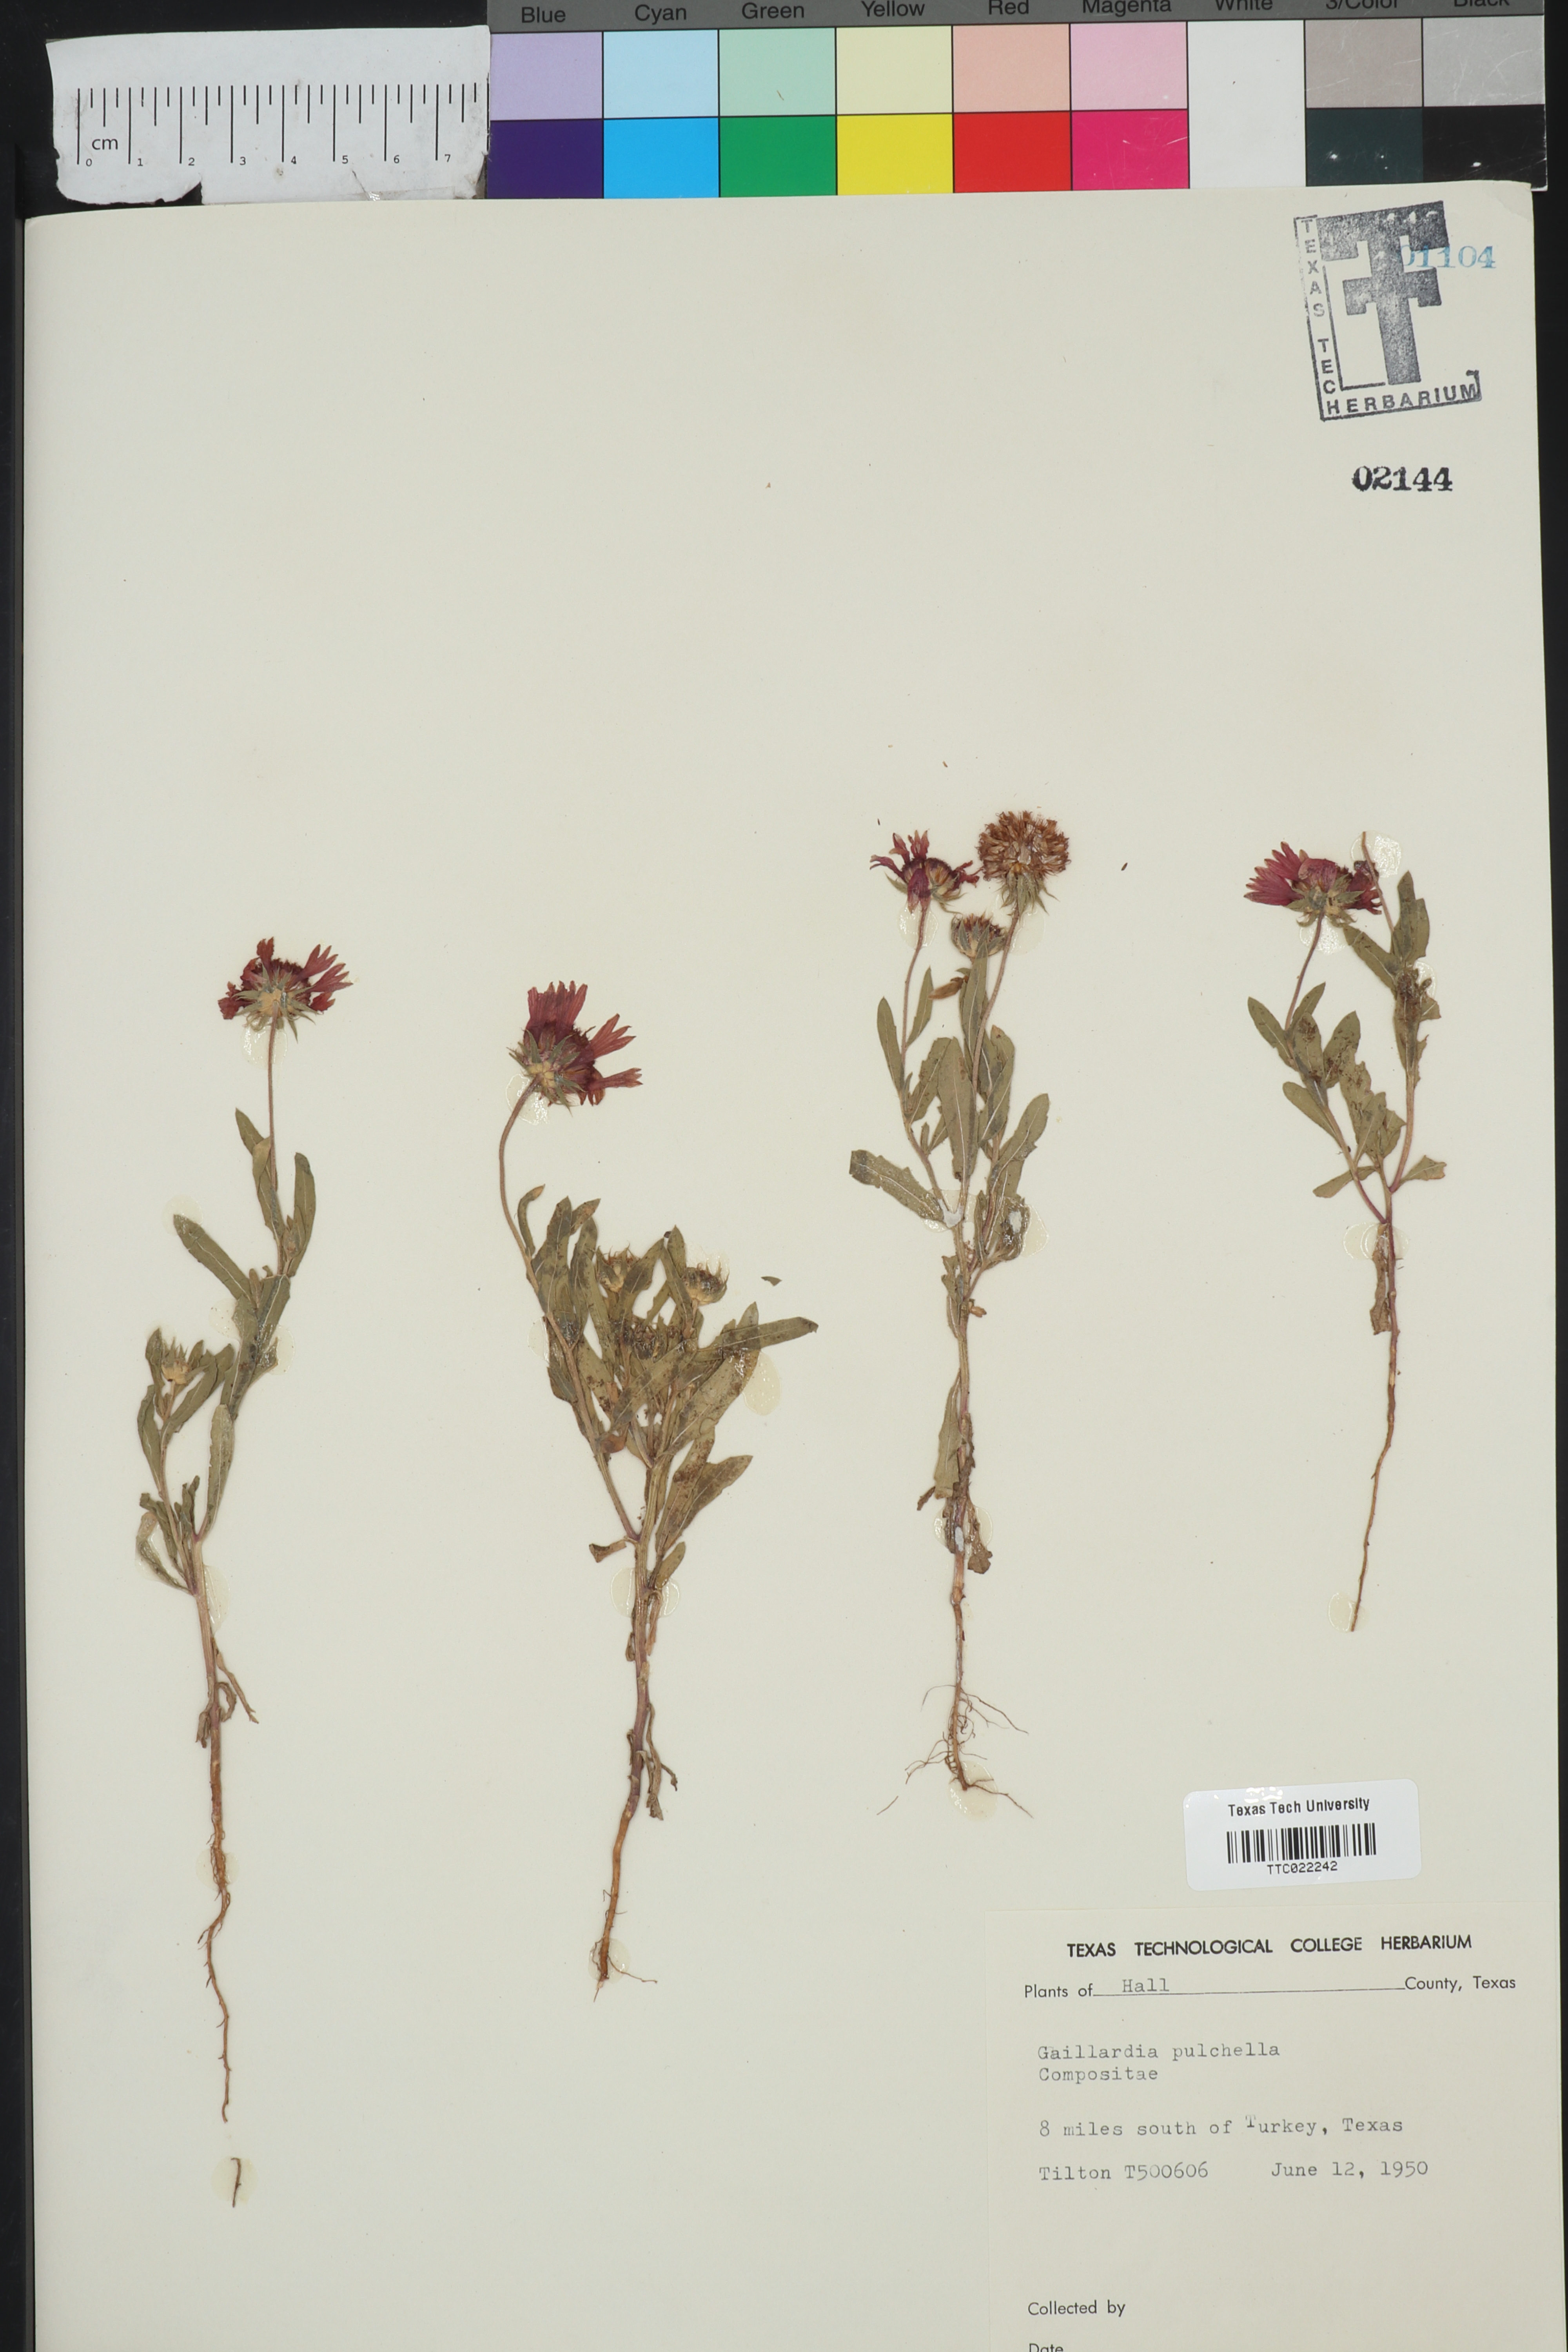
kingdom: Plantae
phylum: Tracheophyta
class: Magnoliopsida
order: Asterales
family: Asteraceae
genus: Gaillardia
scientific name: Gaillardia pulchella
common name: Firewheel
